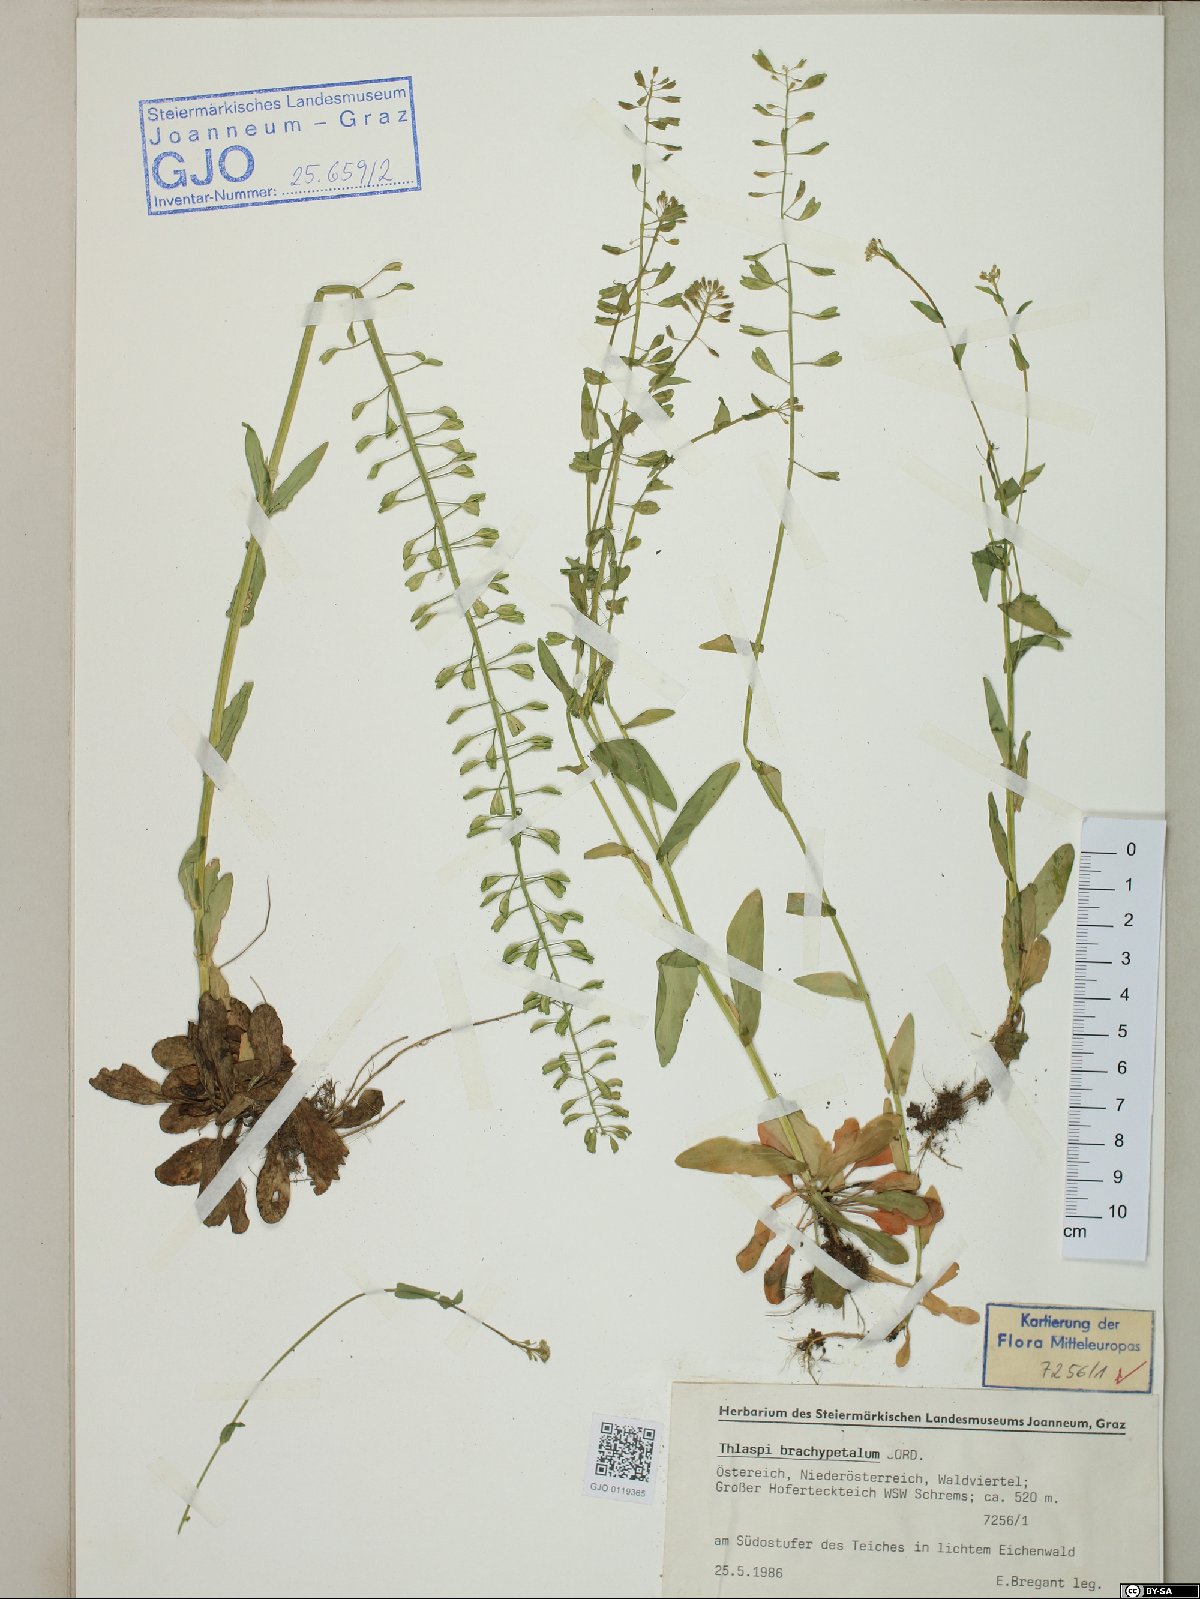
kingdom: Plantae
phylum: Tracheophyta
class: Magnoliopsida
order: Brassicales
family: Brassicaceae
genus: Noccaea
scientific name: Noccaea brachypetala
